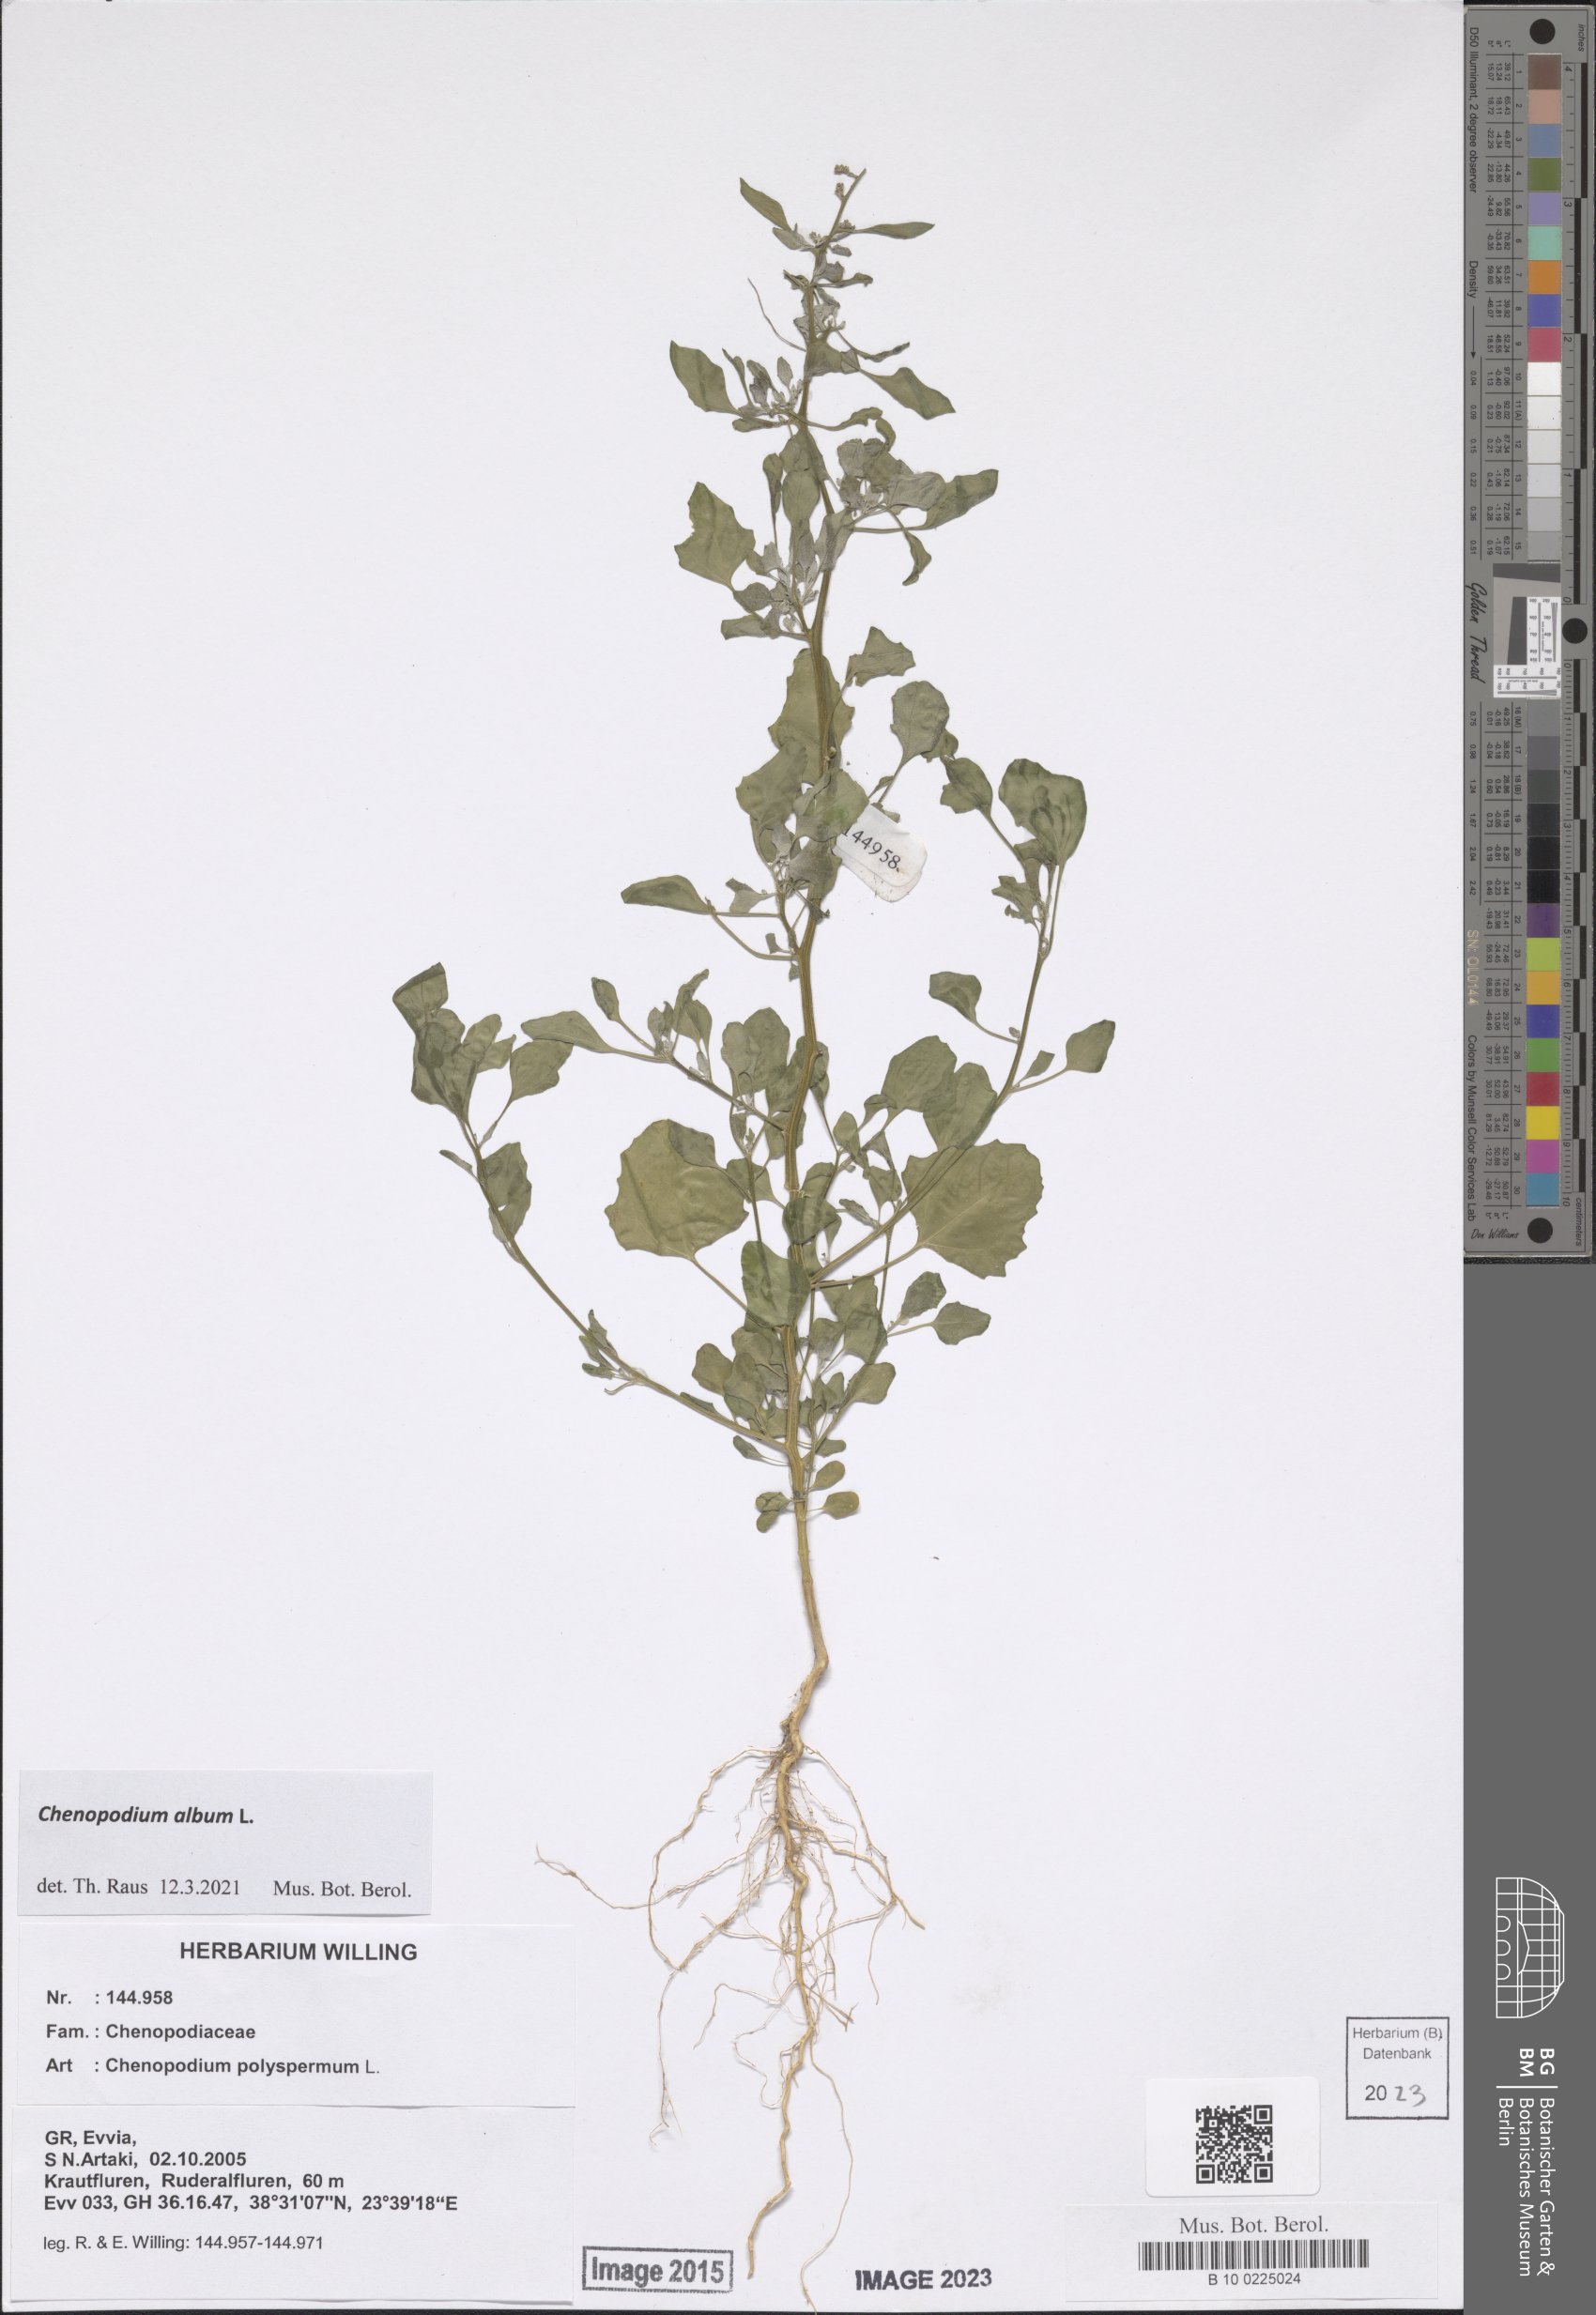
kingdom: Plantae
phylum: Tracheophyta
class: Magnoliopsida
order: Caryophyllales
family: Amaranthaceae
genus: Chenopodium
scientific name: Chenopodium album
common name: Fat-hen
